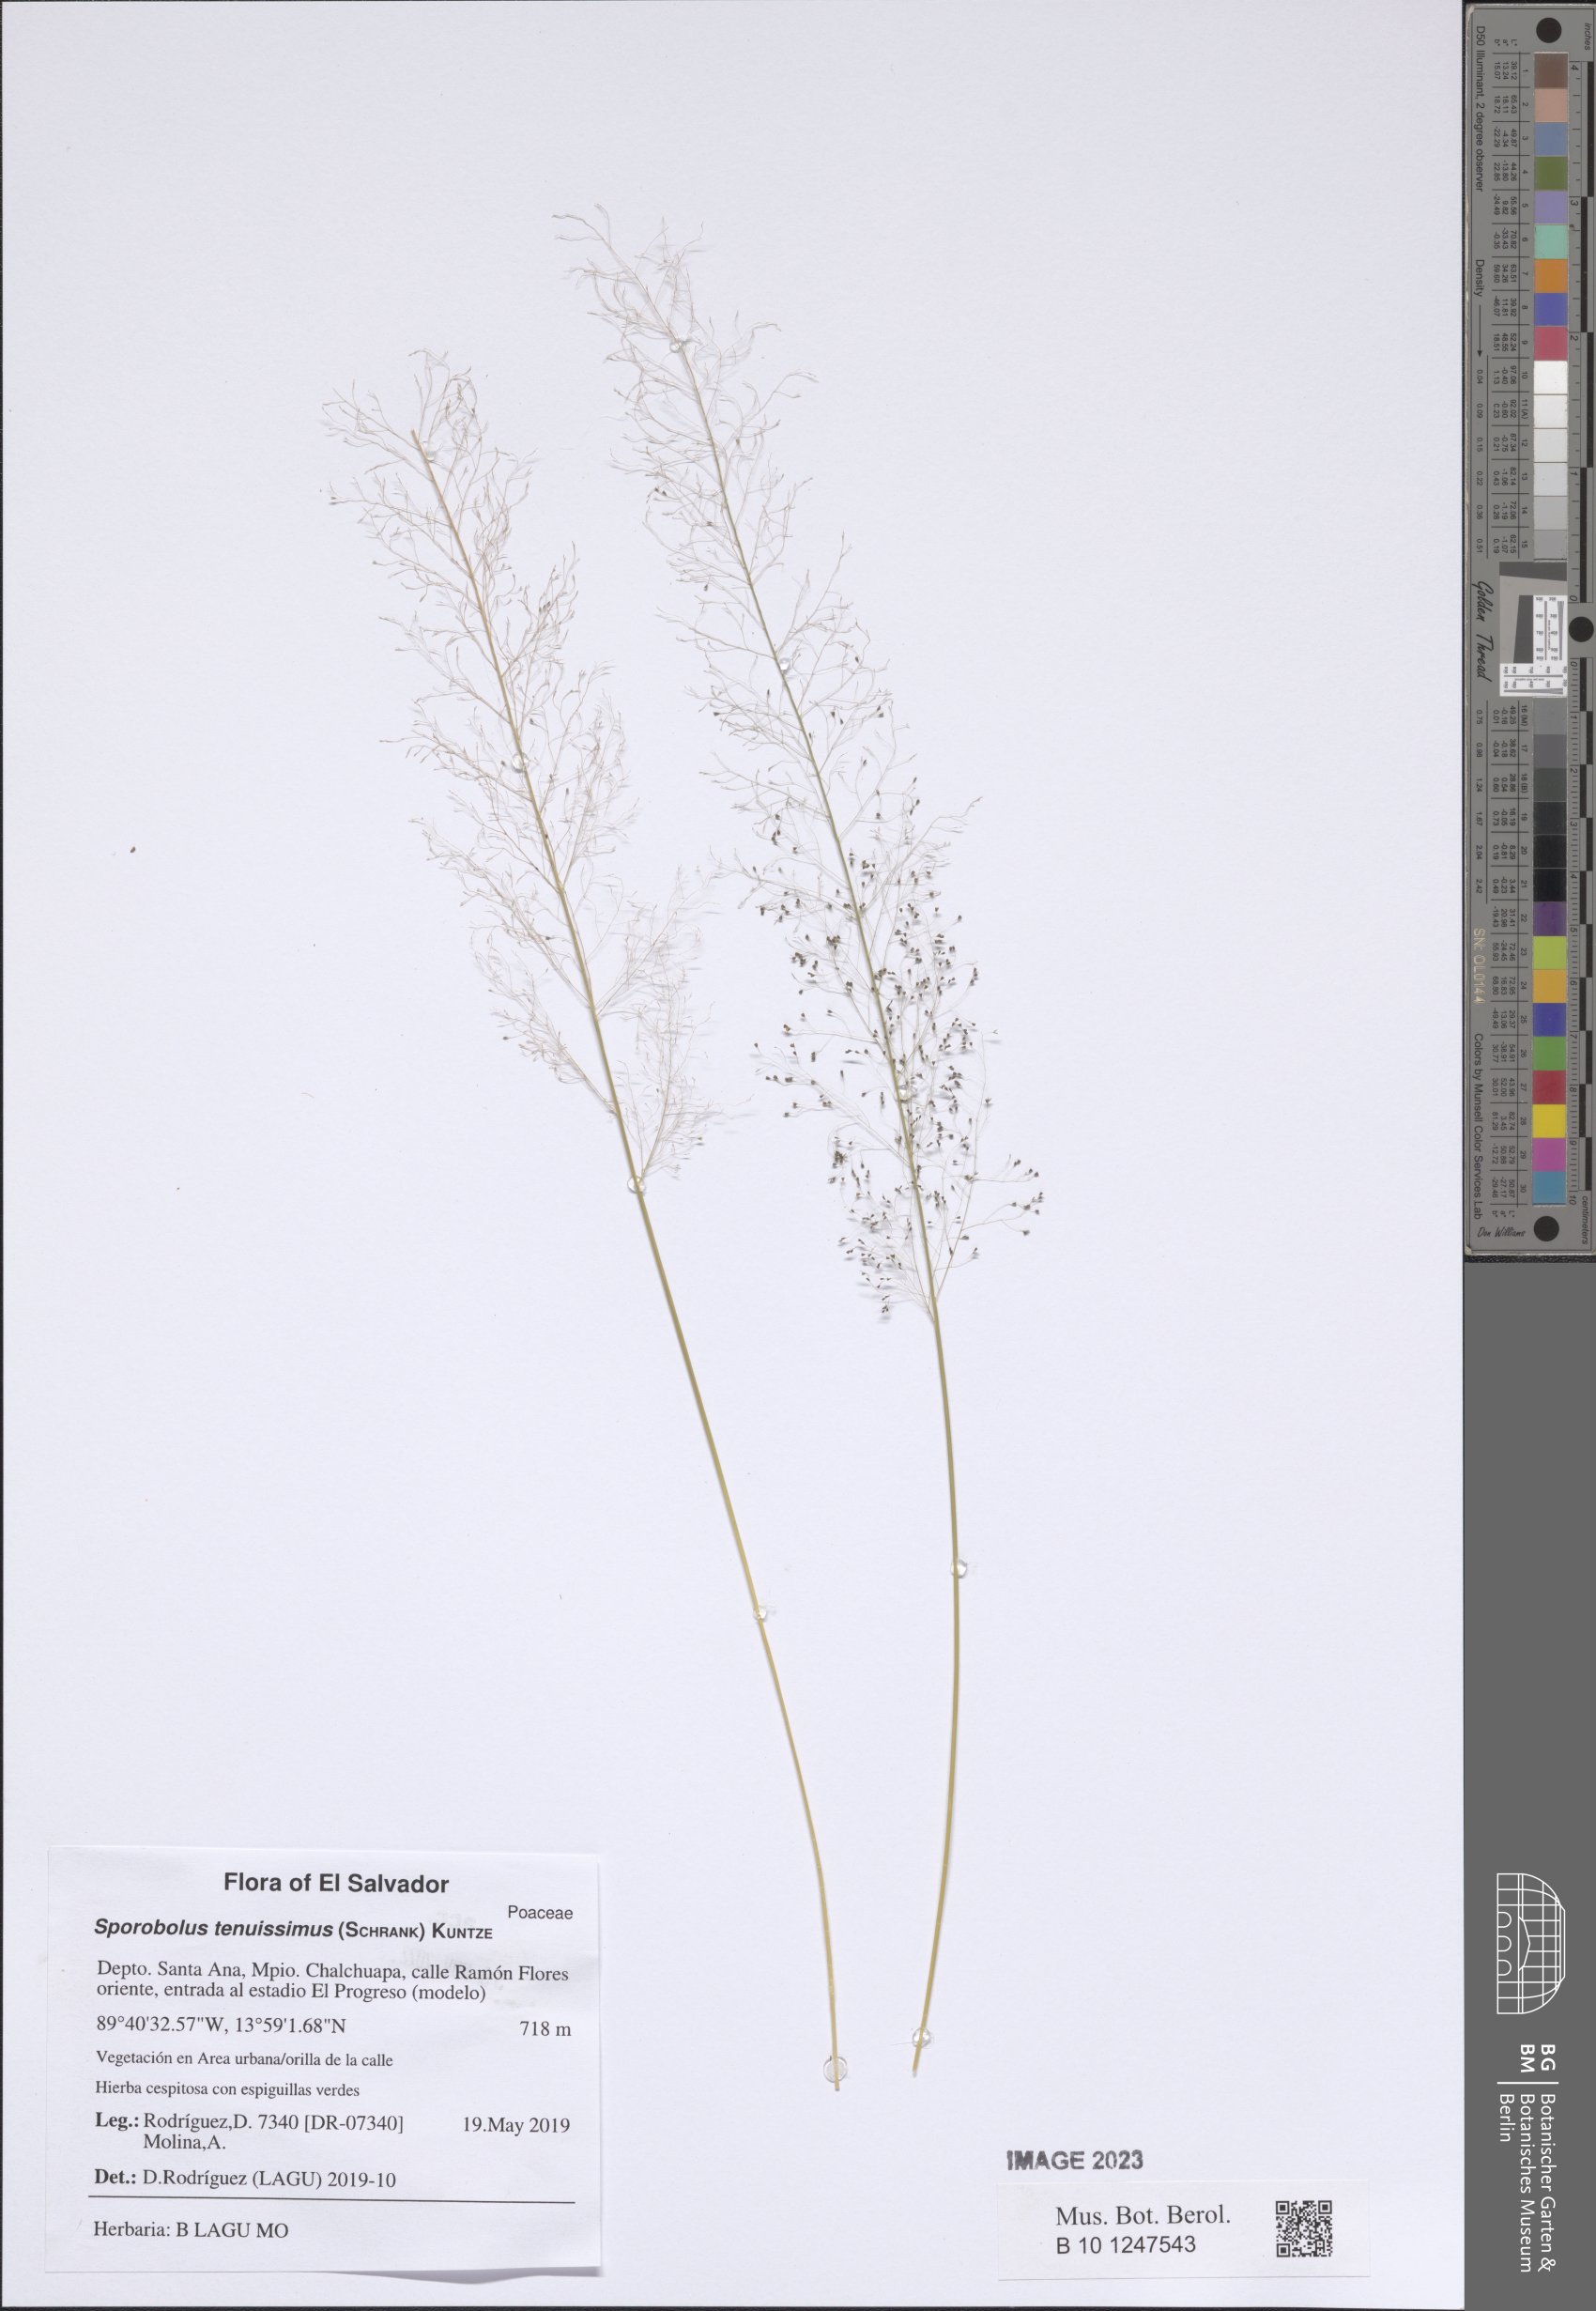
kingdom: Plantae
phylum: Tracheophyta
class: Liliopsida
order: Poales
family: Poaceae
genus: Sporobolus
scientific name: Sporobolus tenuissimus
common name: Tropical dropseed
